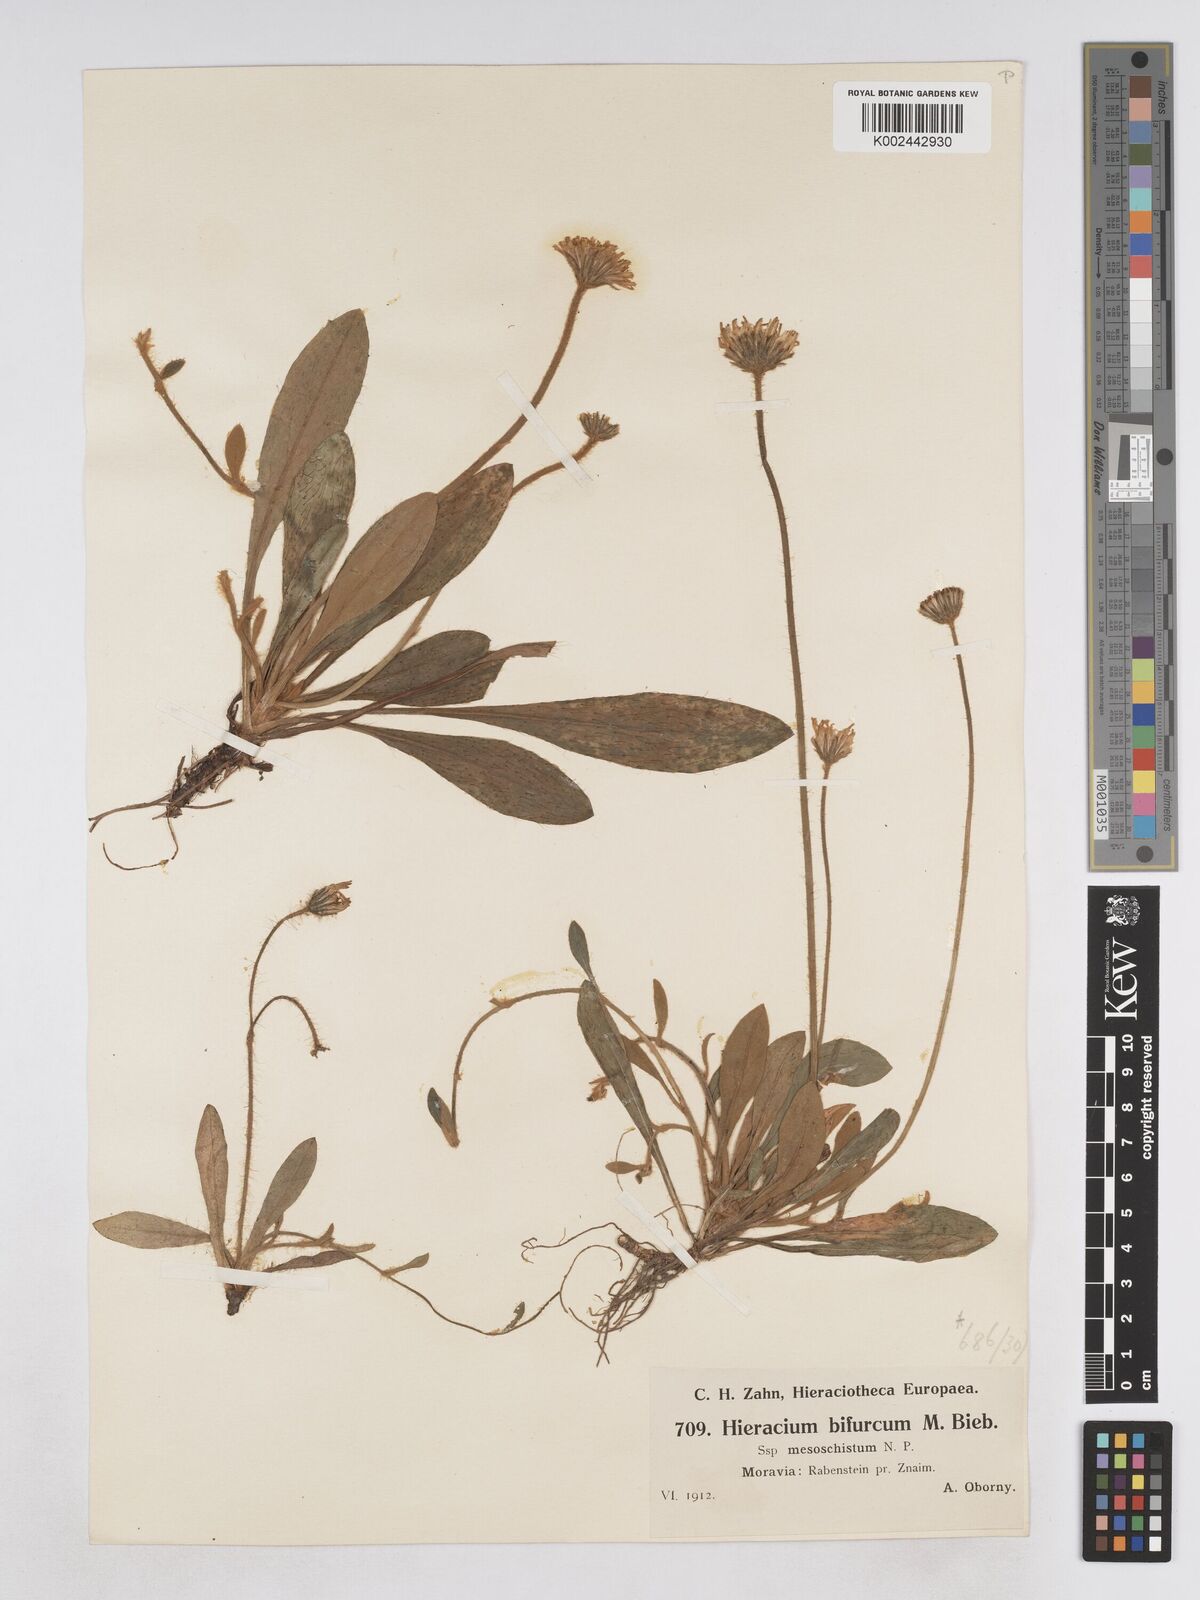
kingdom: Plantae
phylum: Tracheophyta
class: Magnoliopsida
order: Asterales
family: Asteraceae
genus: Pilosella
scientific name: Pilosella bifurca
